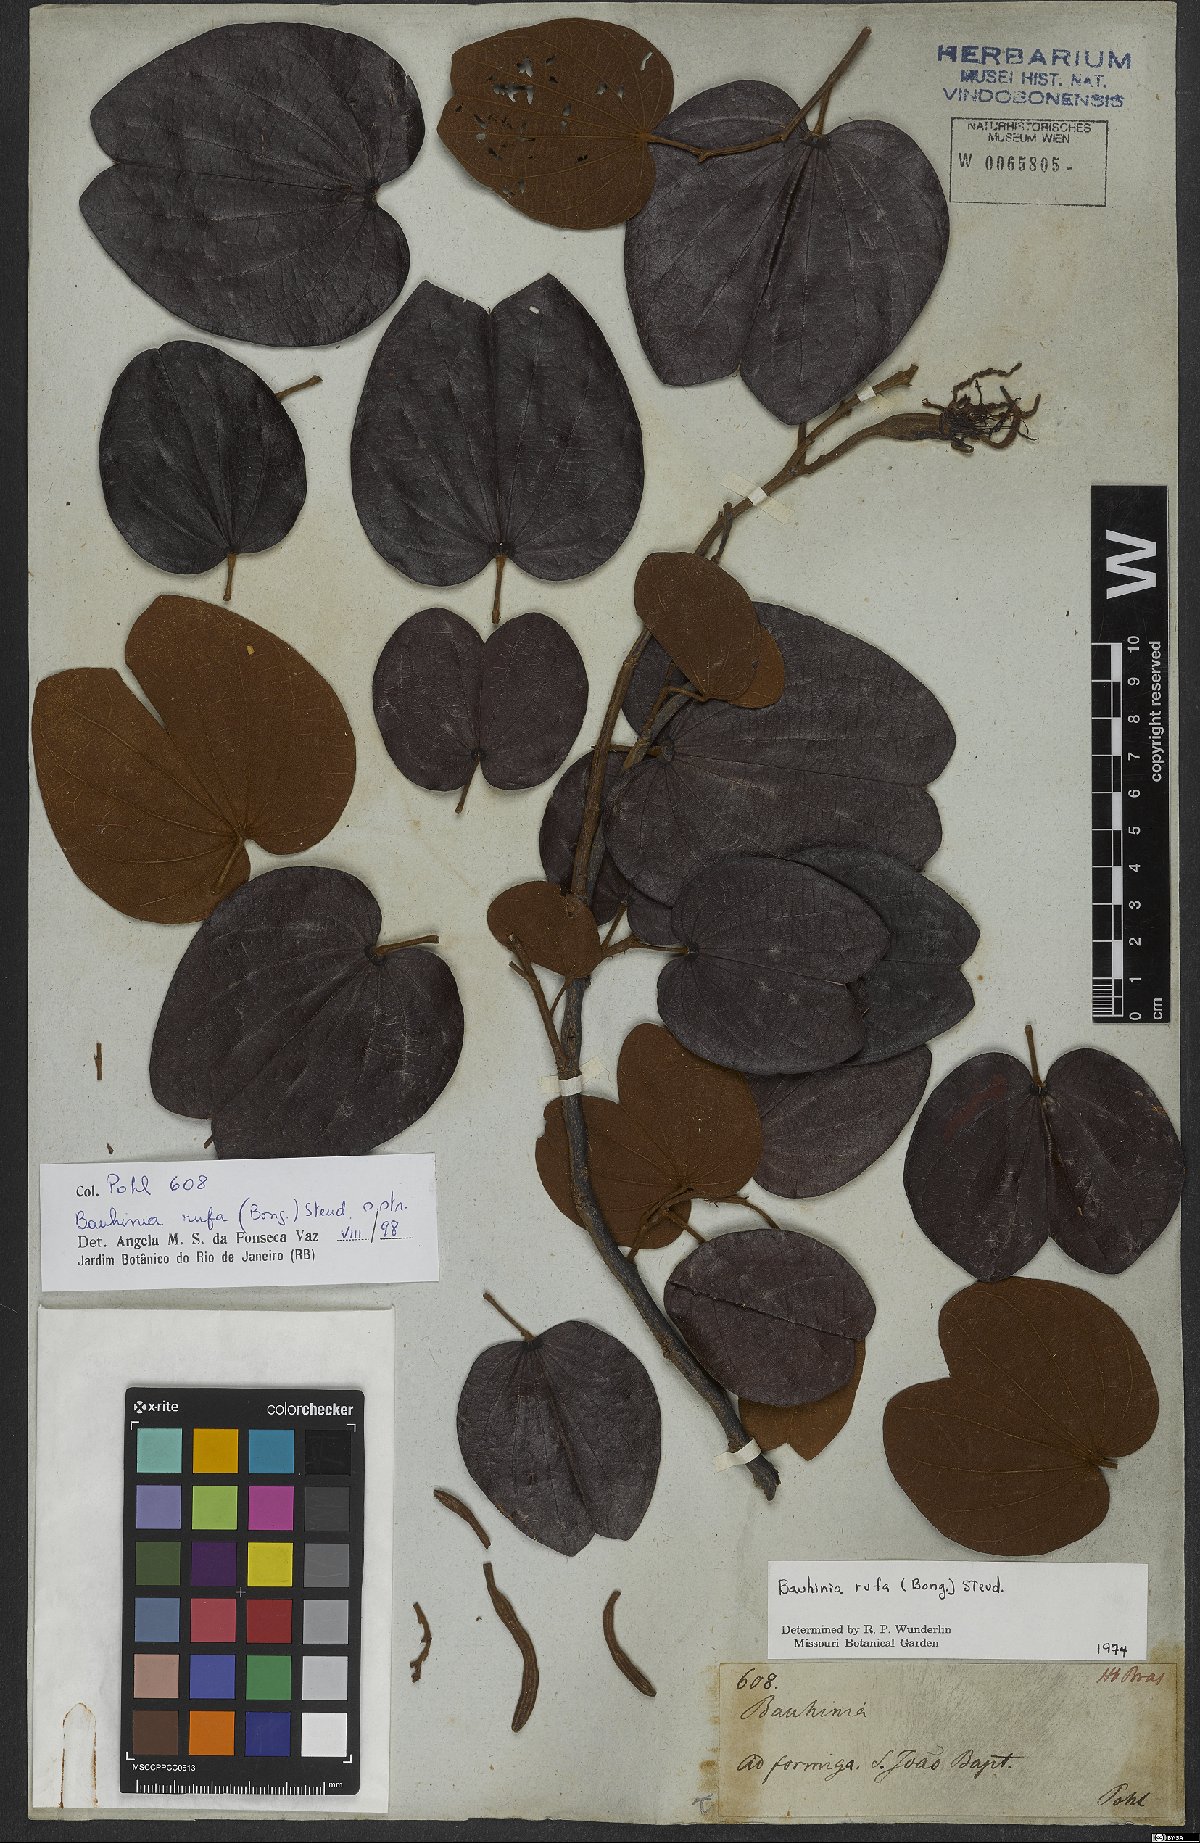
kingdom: Plantae
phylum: Tracheophyta
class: Magnoliopsida
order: Fabales
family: Fabaceae
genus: Bauhinia
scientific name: Bauhinia rufa
